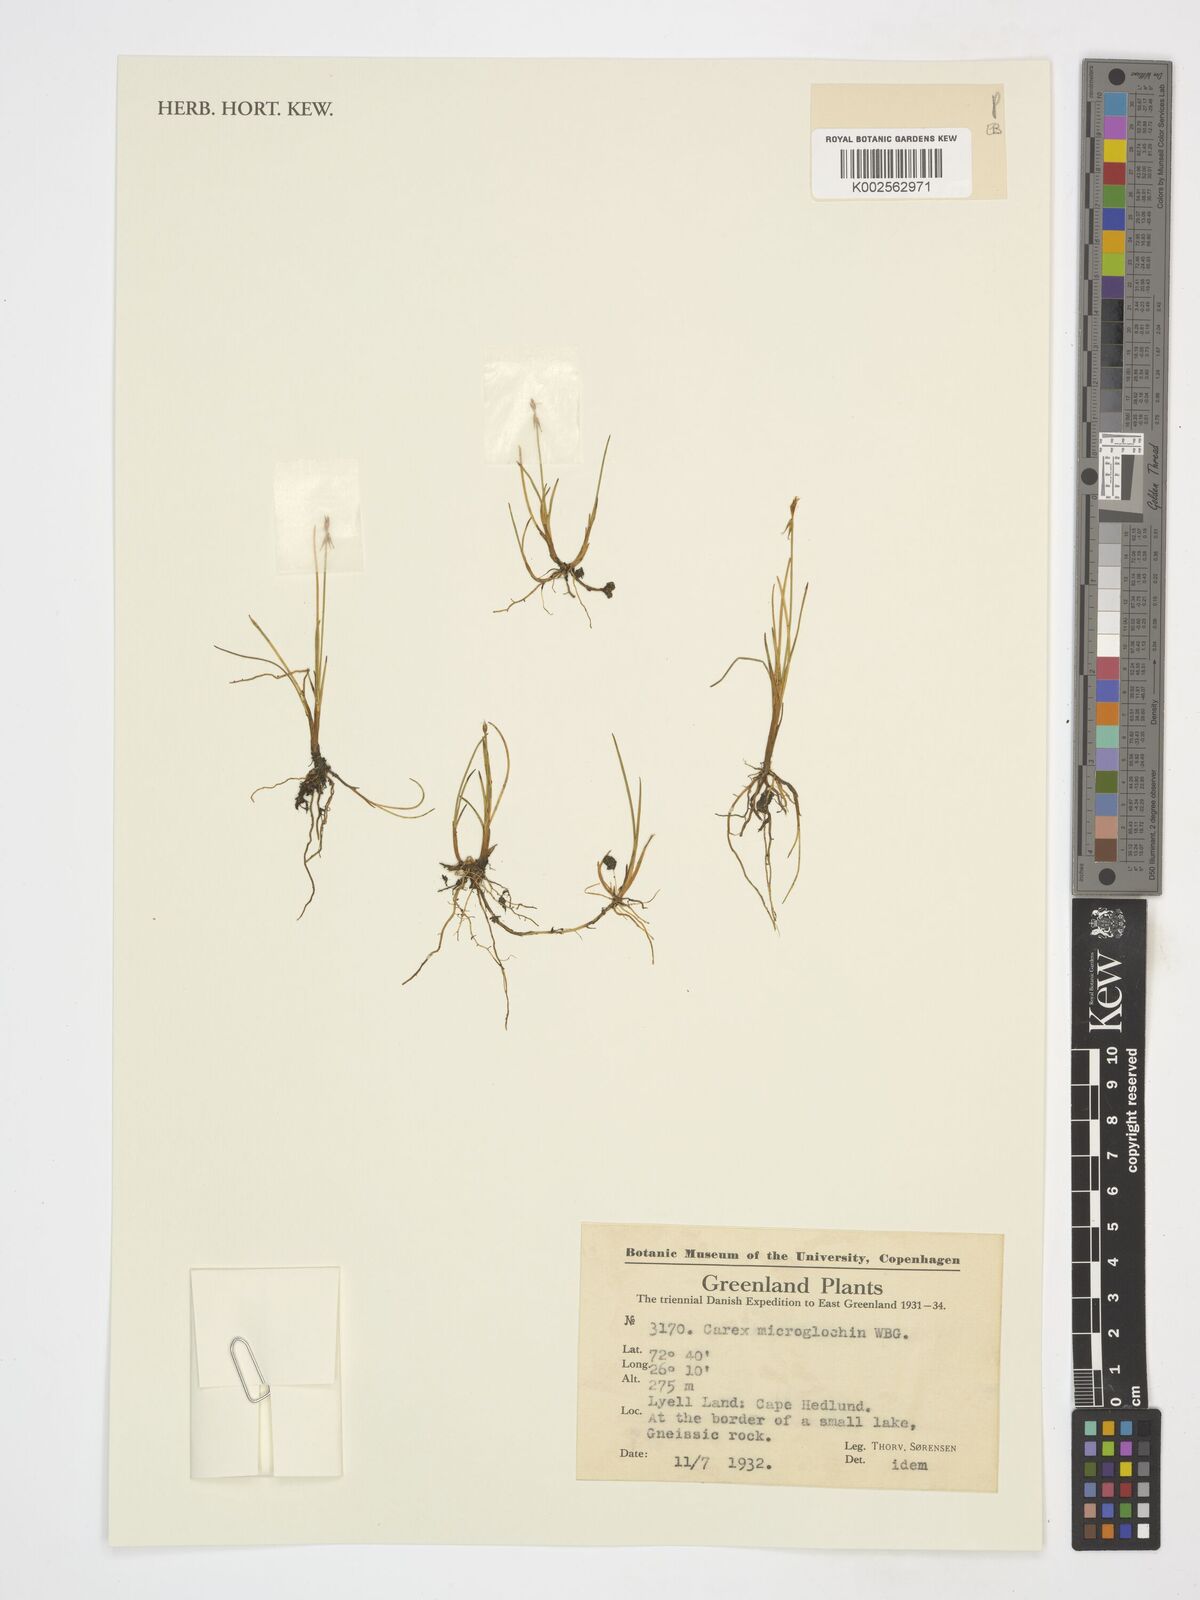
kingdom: Plantae
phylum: Tracheophyta
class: Liliopsida
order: Poales
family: Cyperaceae
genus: Carex
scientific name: Carex microglochin
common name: Bristle sedge
